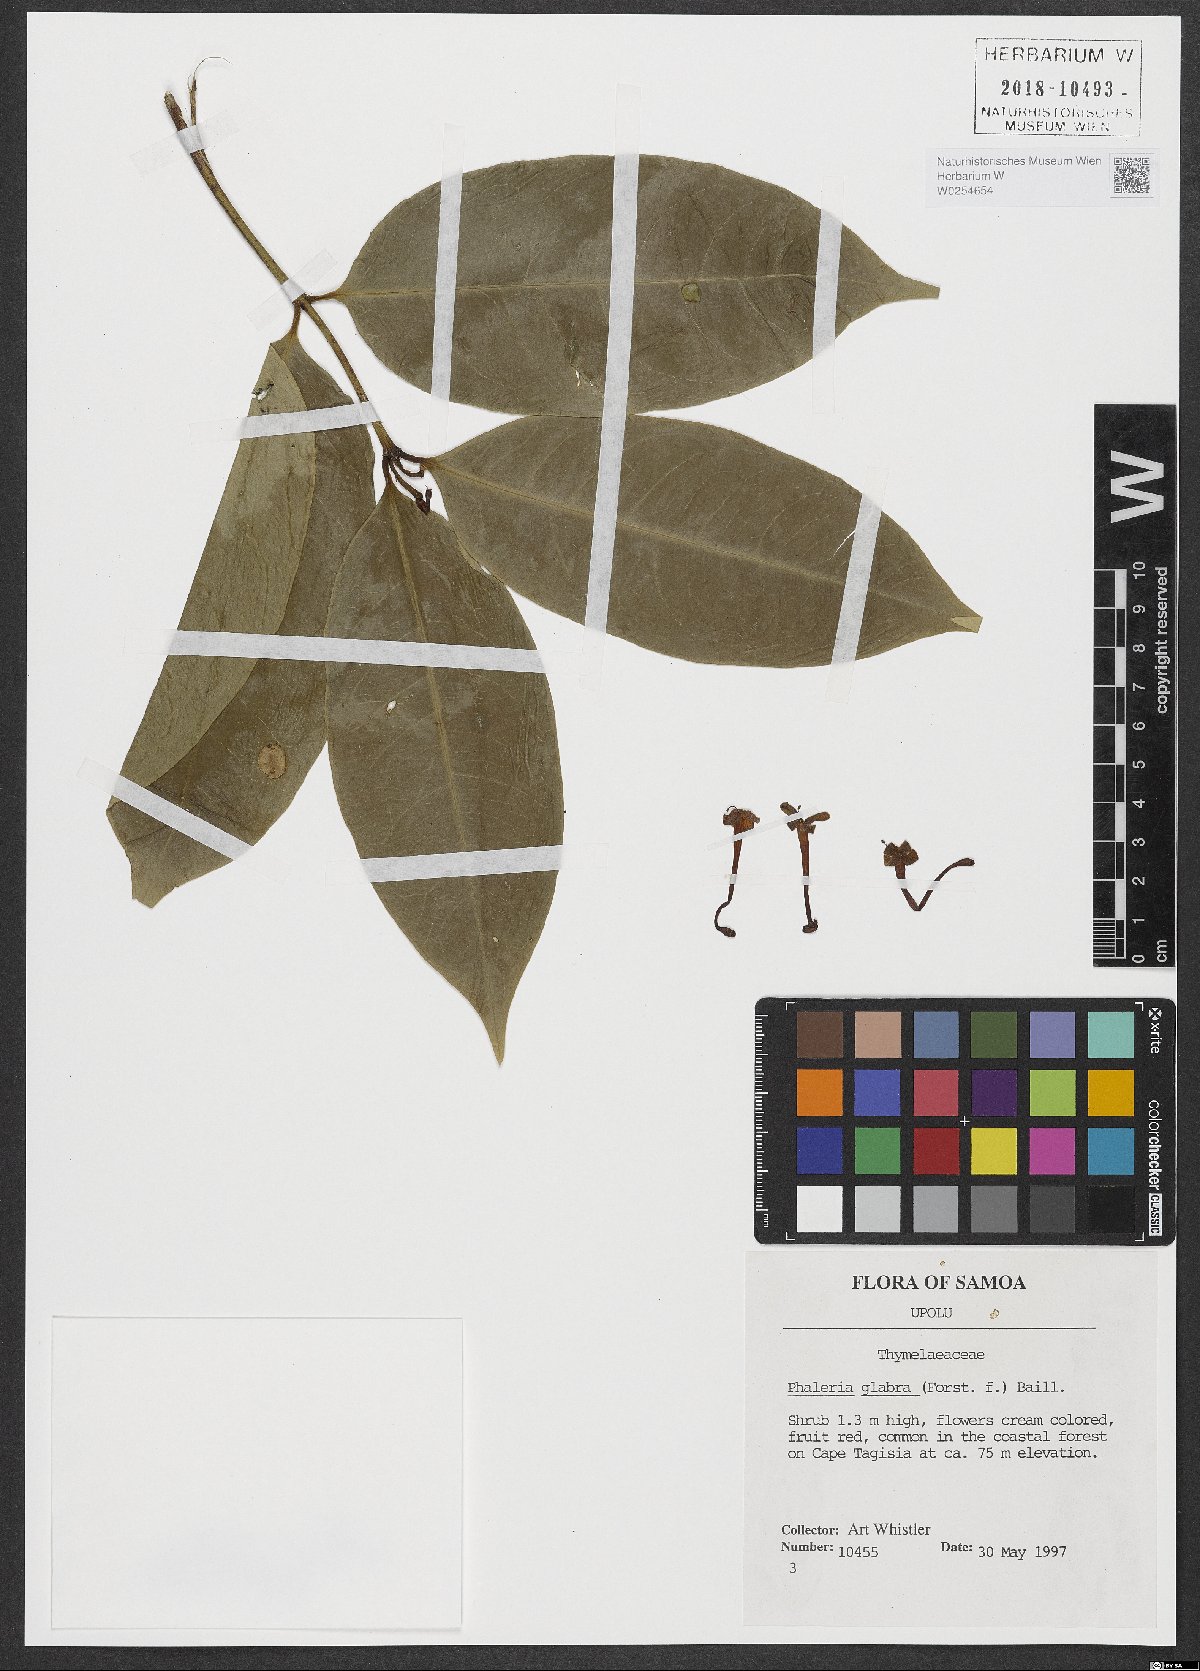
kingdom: Plantae
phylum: Tracheophyta
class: Magnoliopsida
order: Malvales
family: Thymelaeaceae
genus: Phaleria
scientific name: Phaleria glabra
